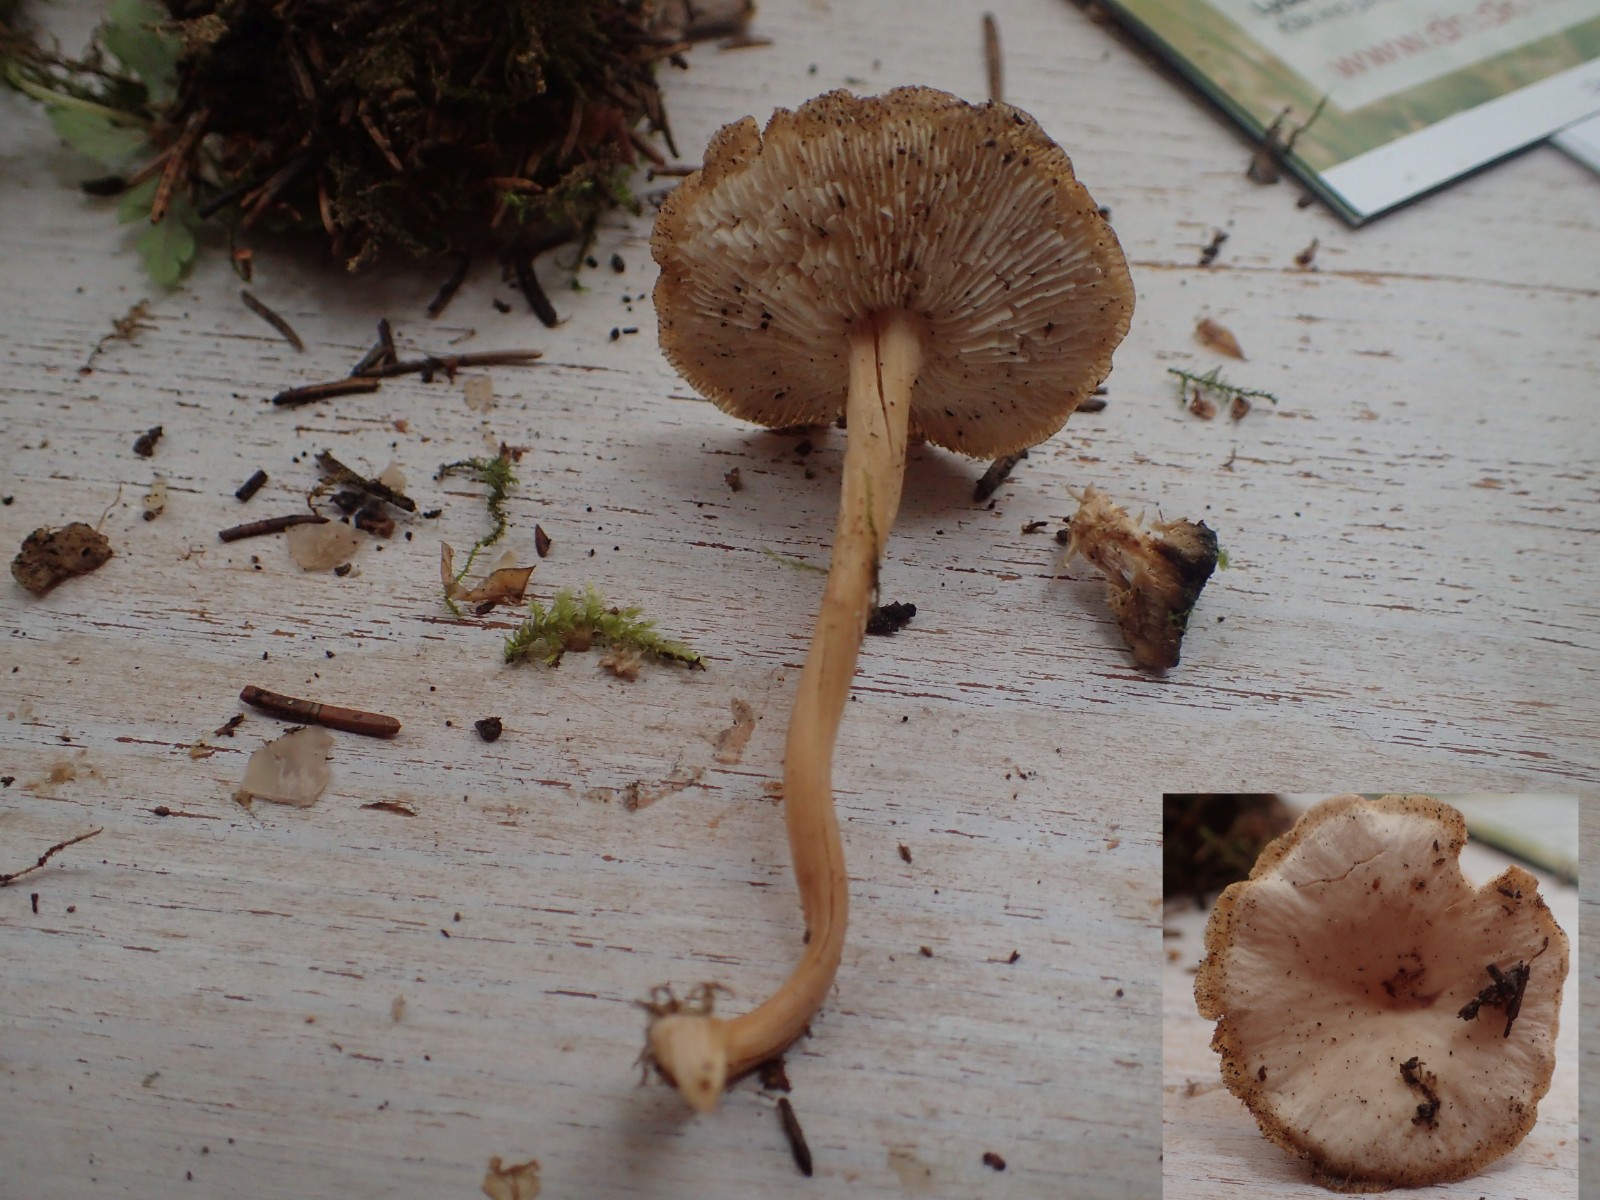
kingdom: Fungi
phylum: Basidiomycota
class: Agaricomycetes
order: Agaricales
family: Omphalotaceae
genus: Gymnopus
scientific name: Gymnopus dryophilus
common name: løv-fladhat
